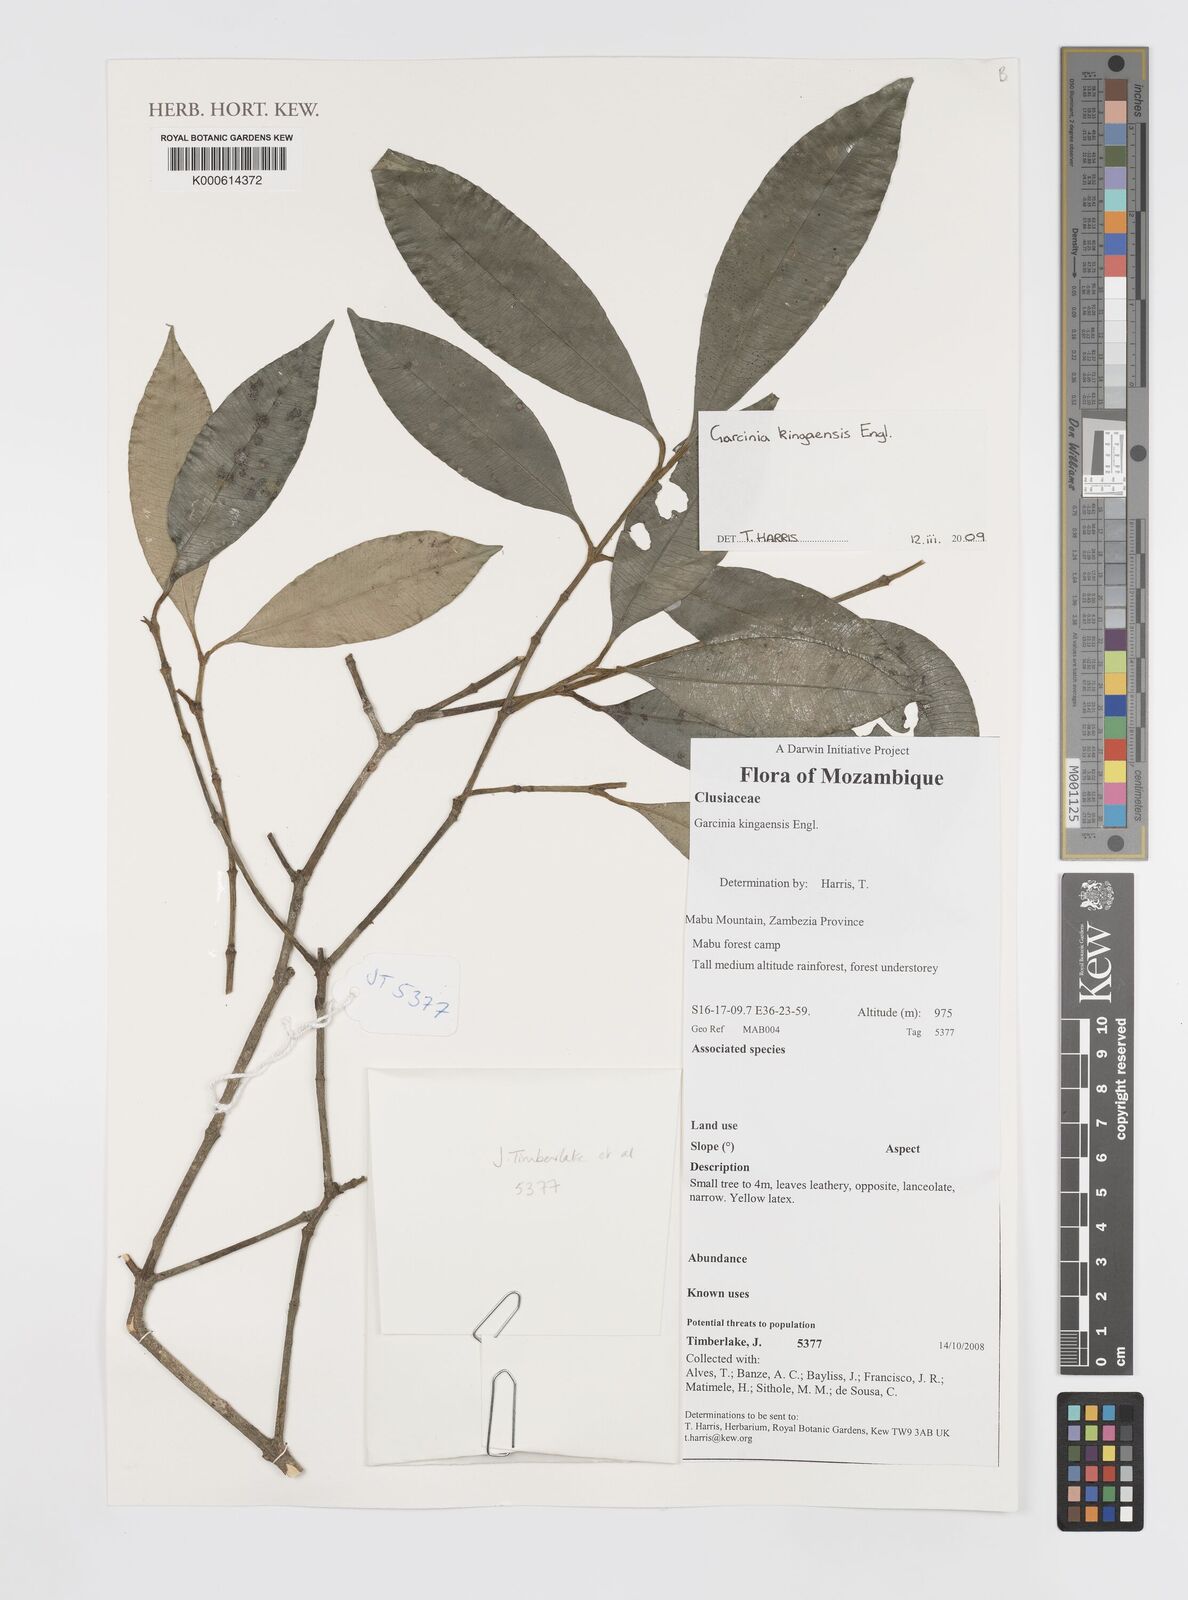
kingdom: Plantae
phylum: Tracheophyta
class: Magnoliopsida
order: Malpighiales
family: Clusiaceae
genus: Garcinia
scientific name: Garcinia kingaensis
